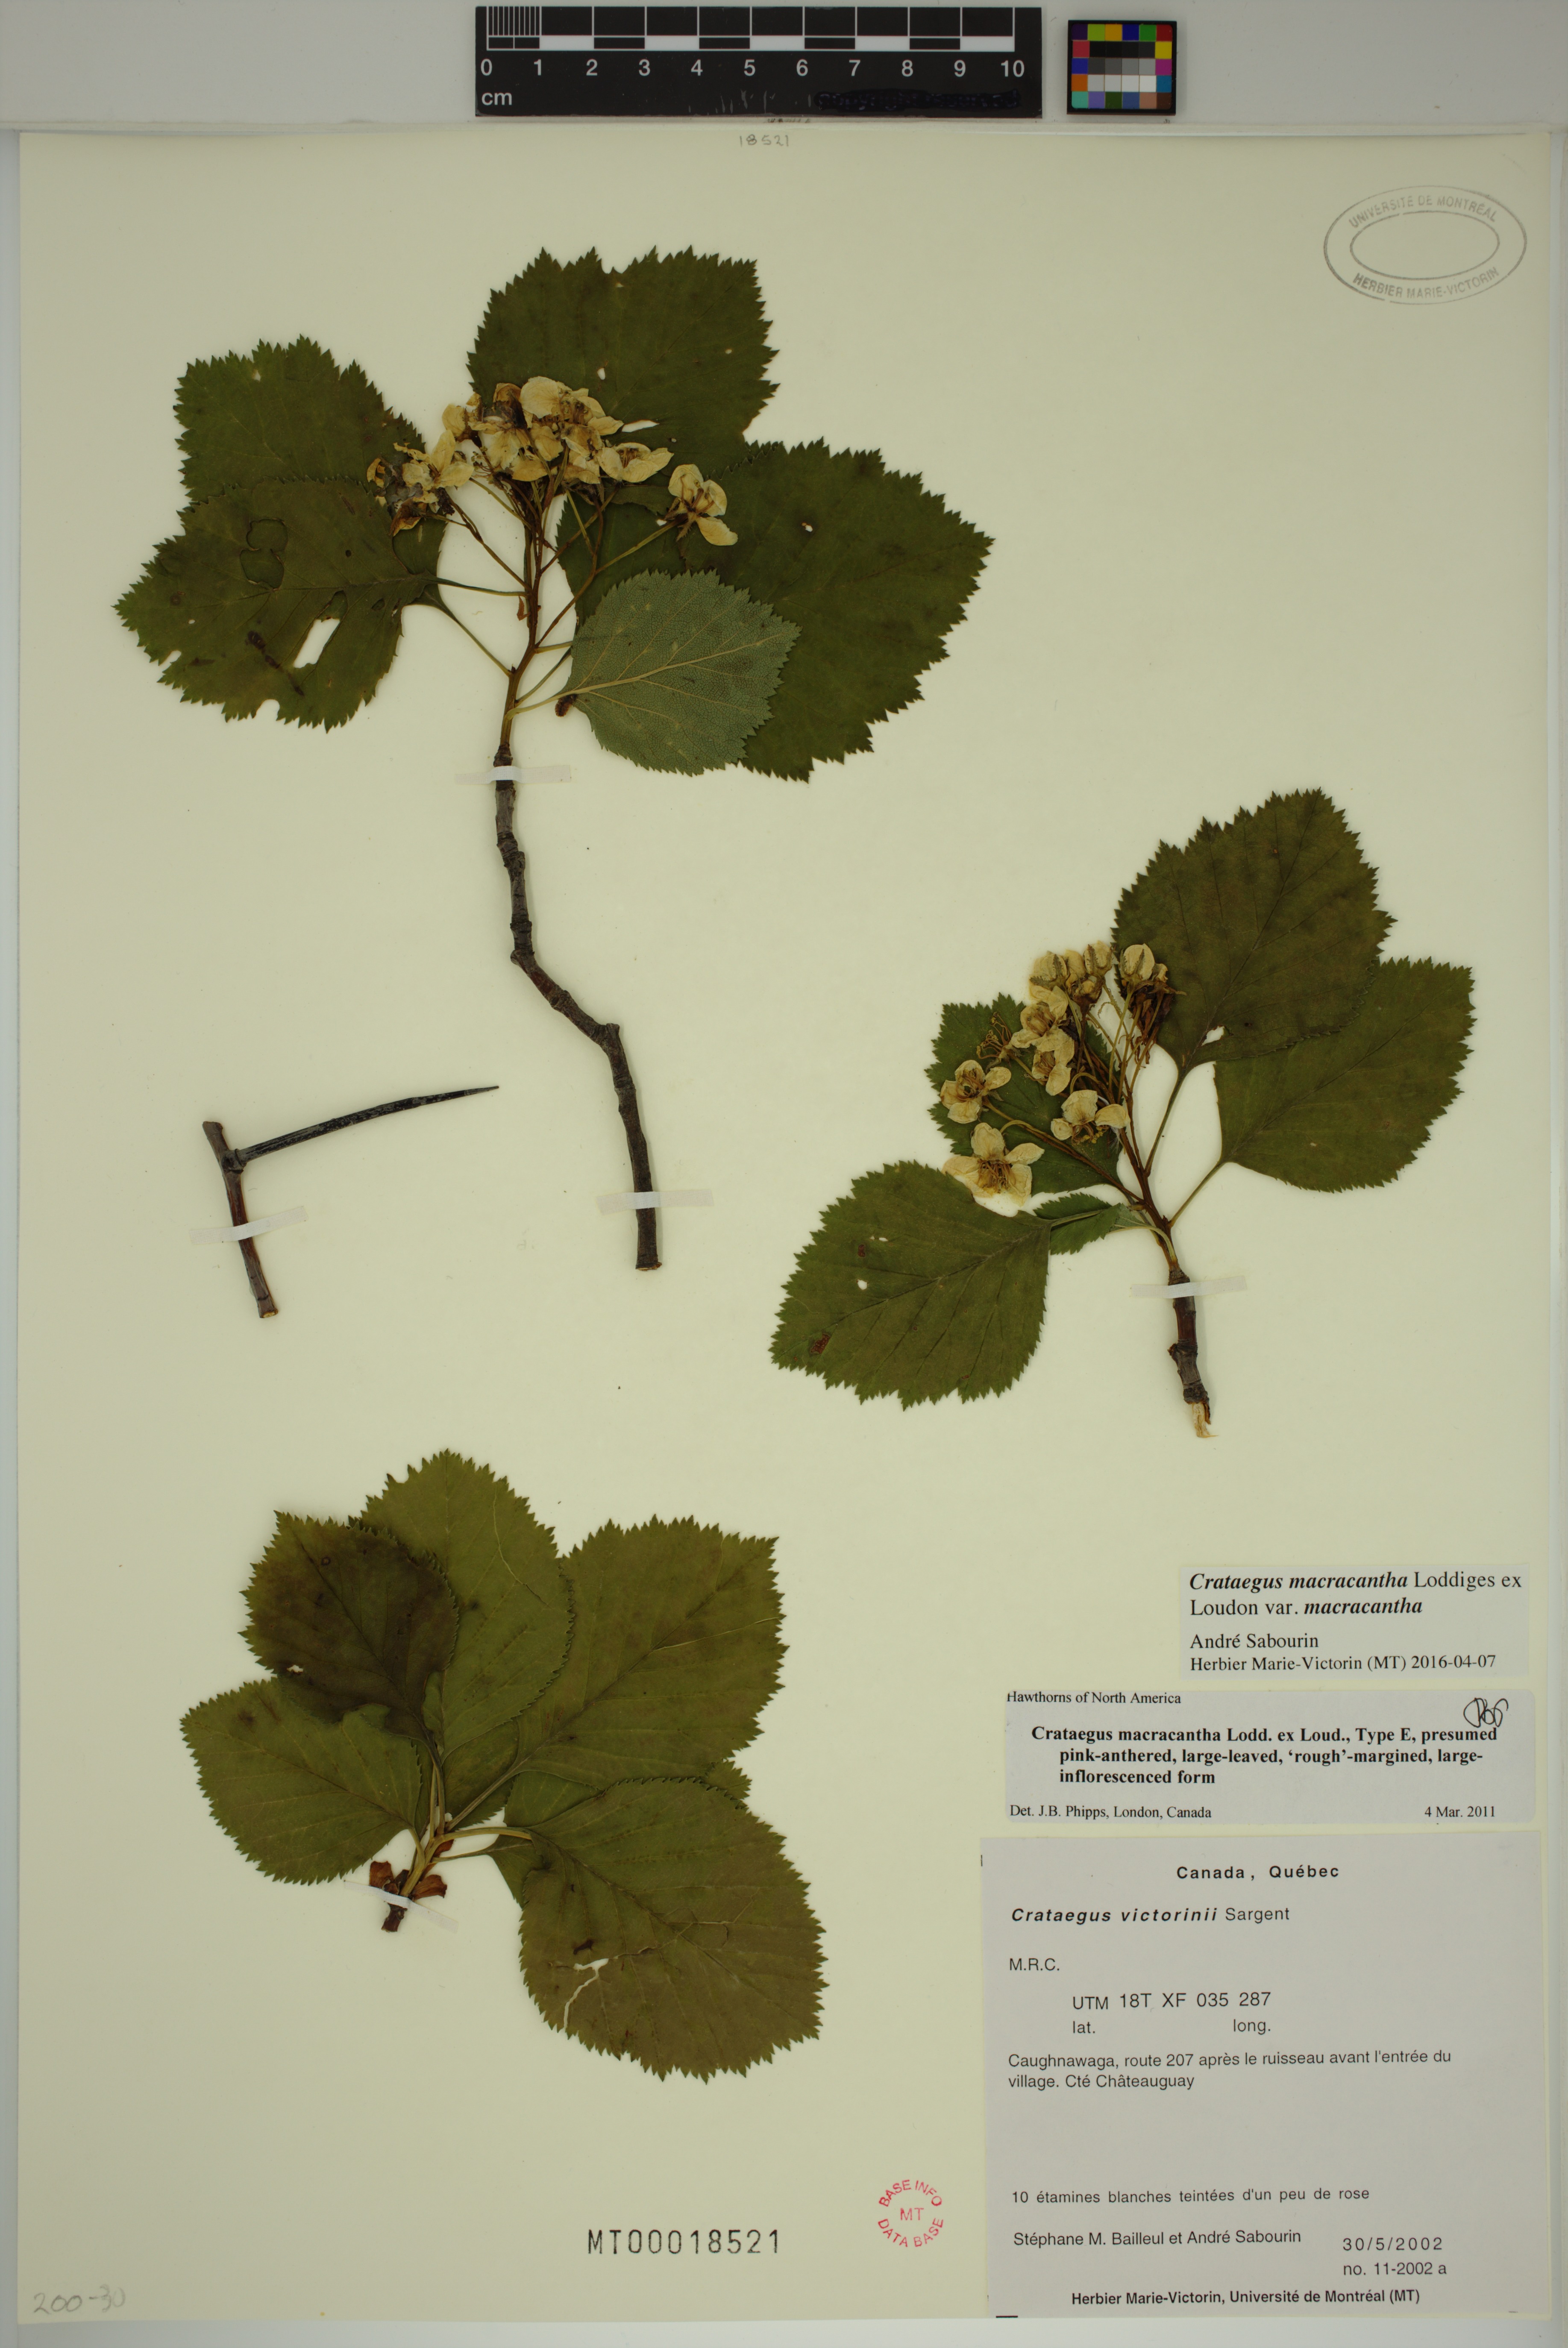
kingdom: Plantae
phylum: Tracheophyta
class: Magnoliopsida
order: Rosales
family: Rosaceae
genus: Crataegus
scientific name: Crataegus macracantha
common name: Large-thorn hawthorn
